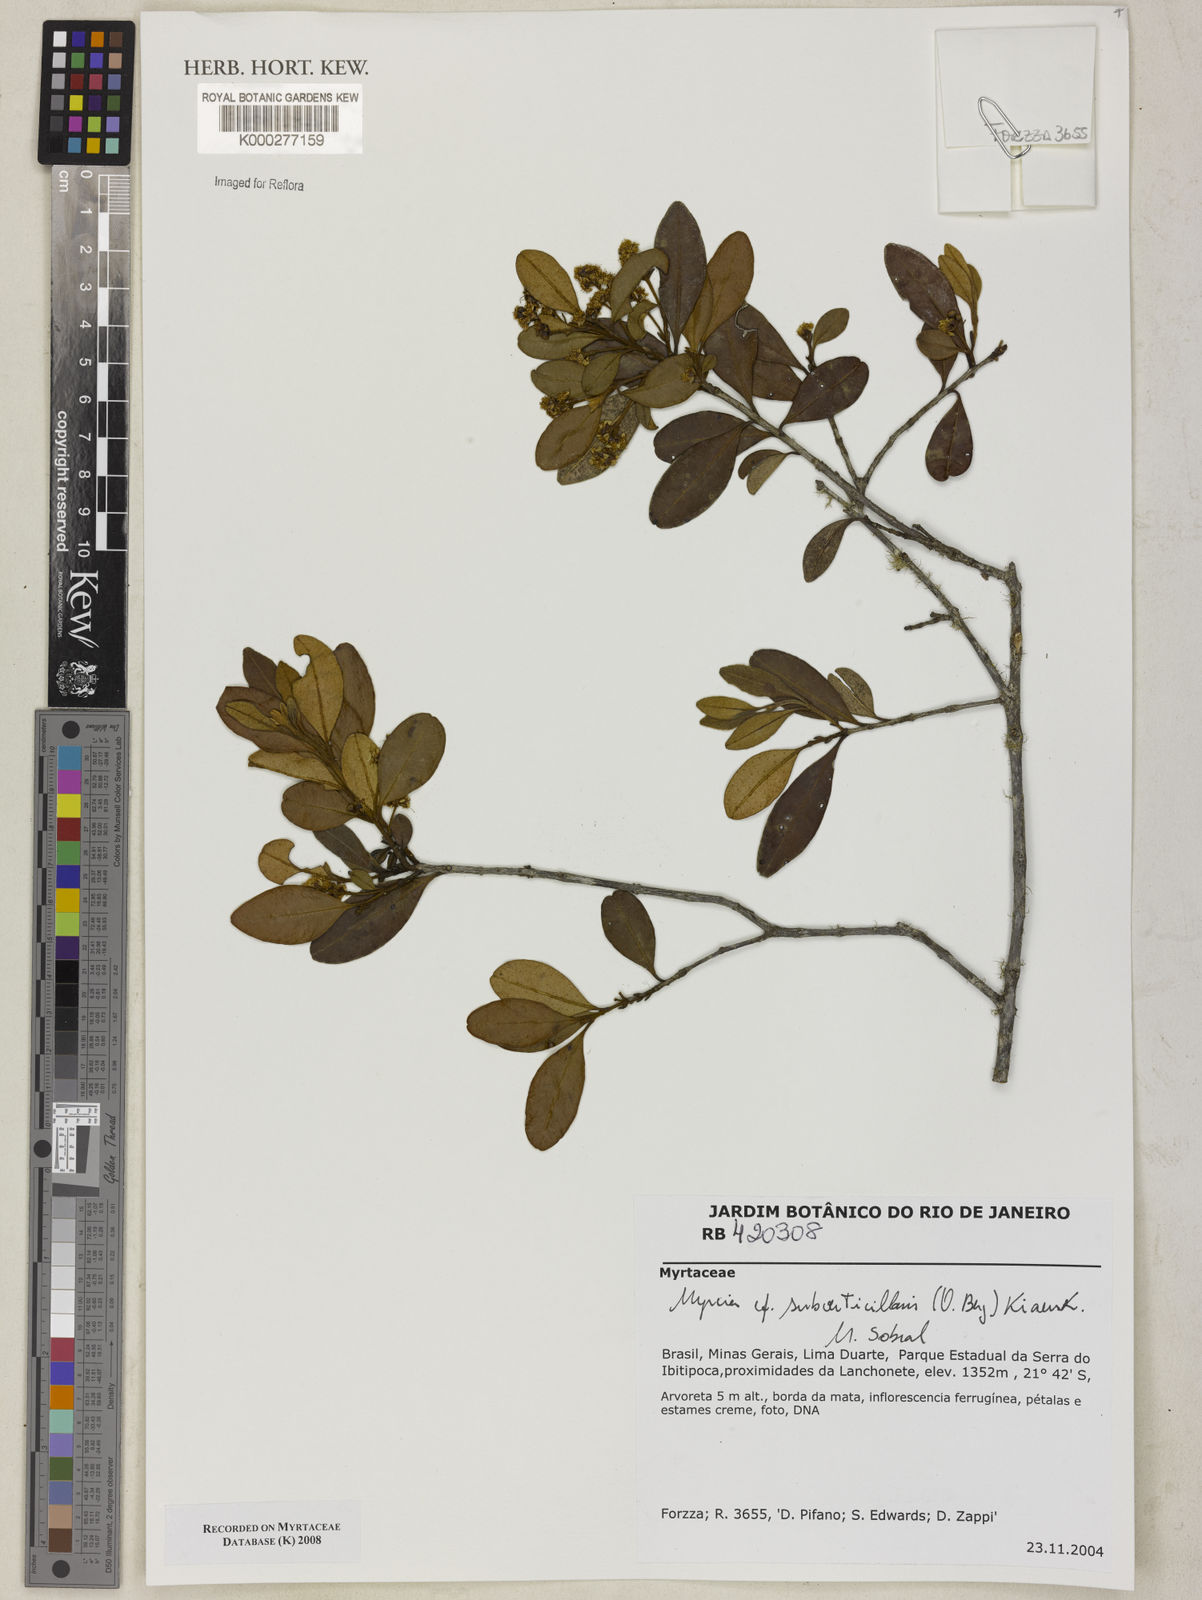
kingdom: Plantae
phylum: Tracheophyta
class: Magnoliopsida
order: Myrtales
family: Myrtaceae
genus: Myrcia
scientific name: Myrcia subverticillaris
